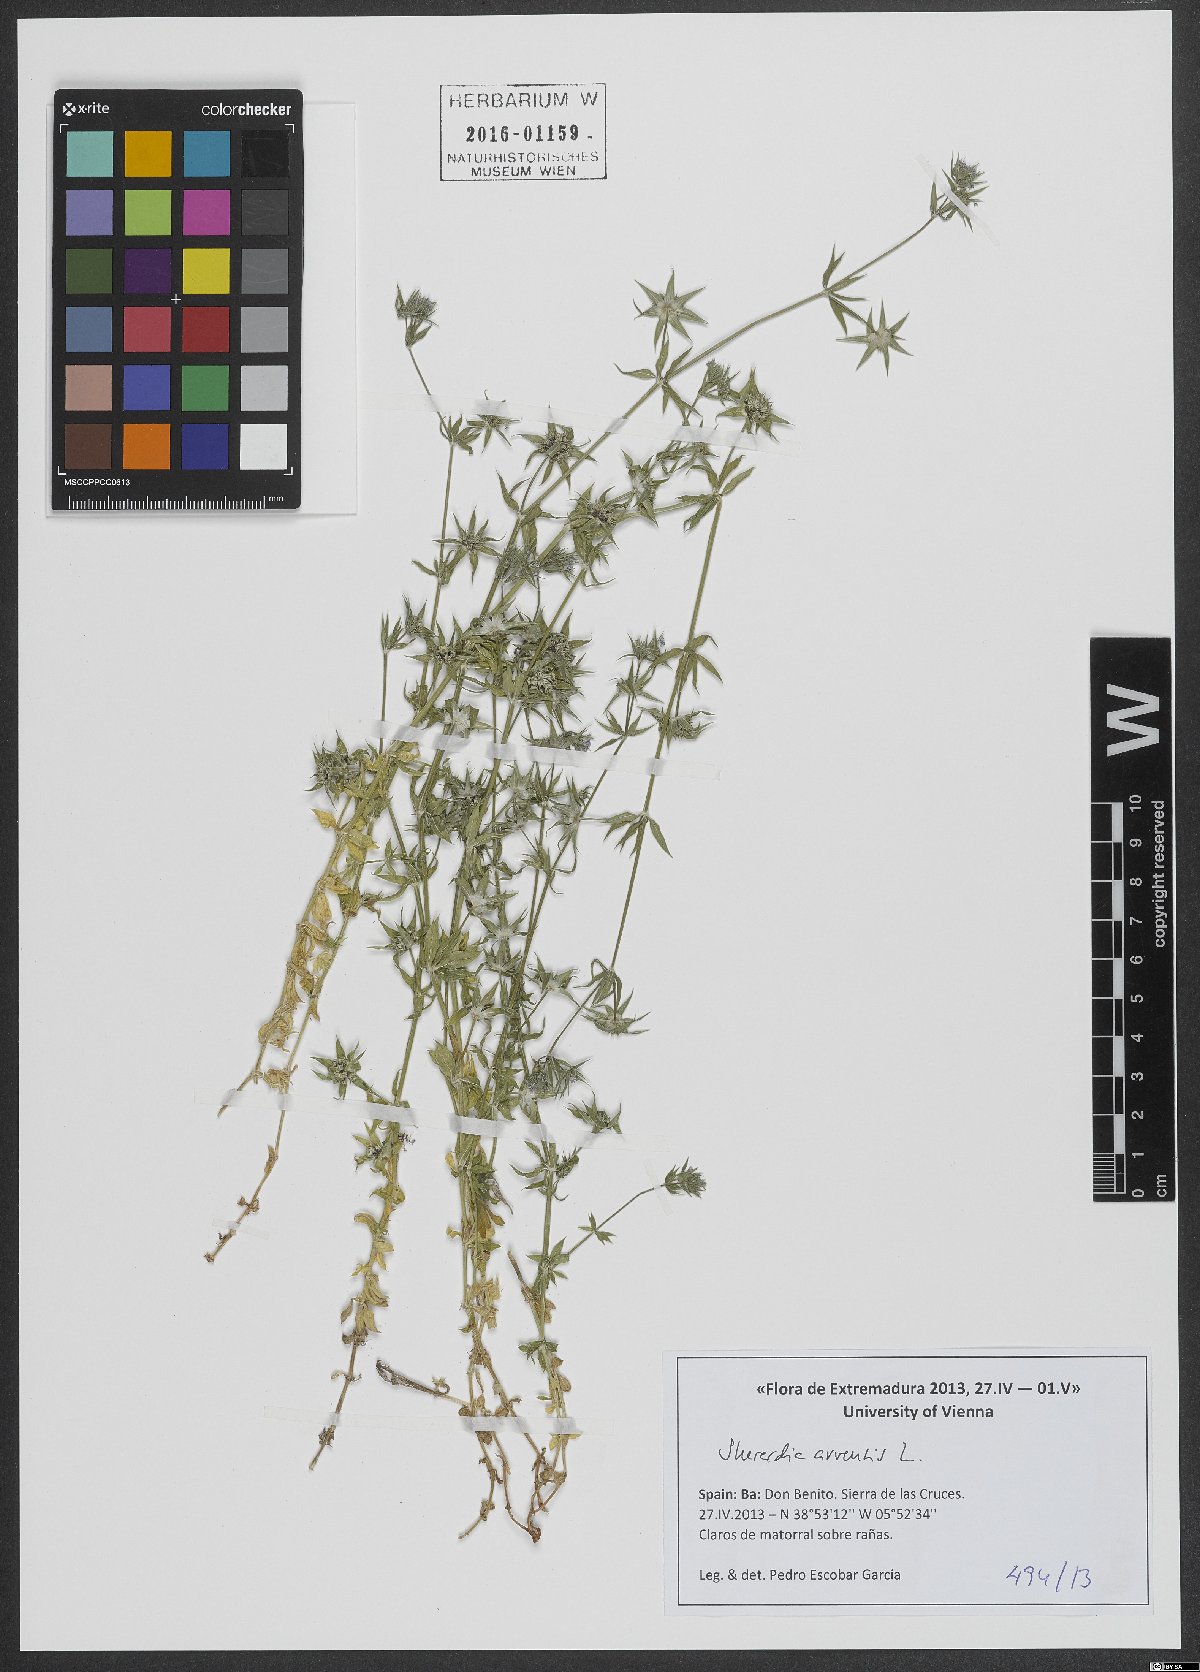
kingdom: Plantae
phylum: Tracheophyta
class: Magnoliopsida
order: Gentianales
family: Rubiaceae
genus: Sherardia
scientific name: Sherardia arvensis
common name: Field madder
